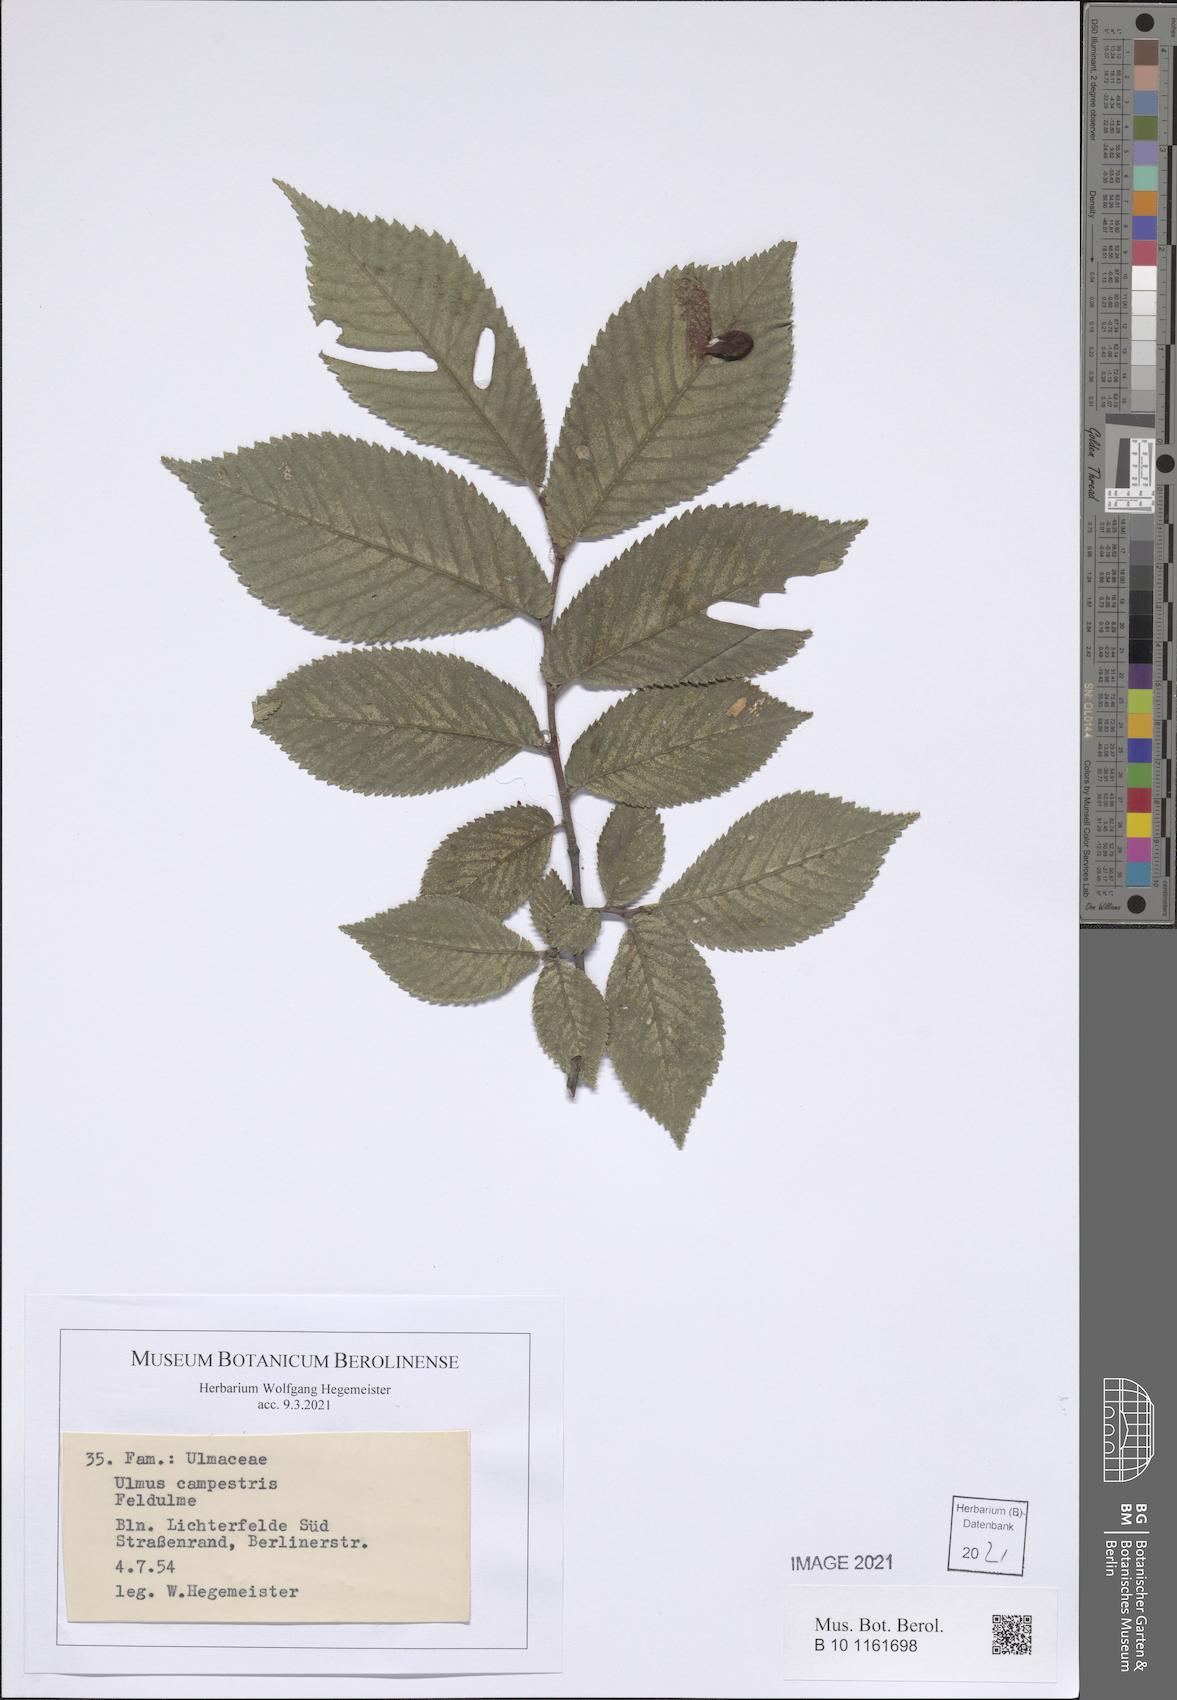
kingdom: Plantae
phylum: Tracheophyta
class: Magnoliopsida
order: Rosales
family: Ulmaceae
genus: Ulmus
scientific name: Ulmus glabra
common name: Wych elm
